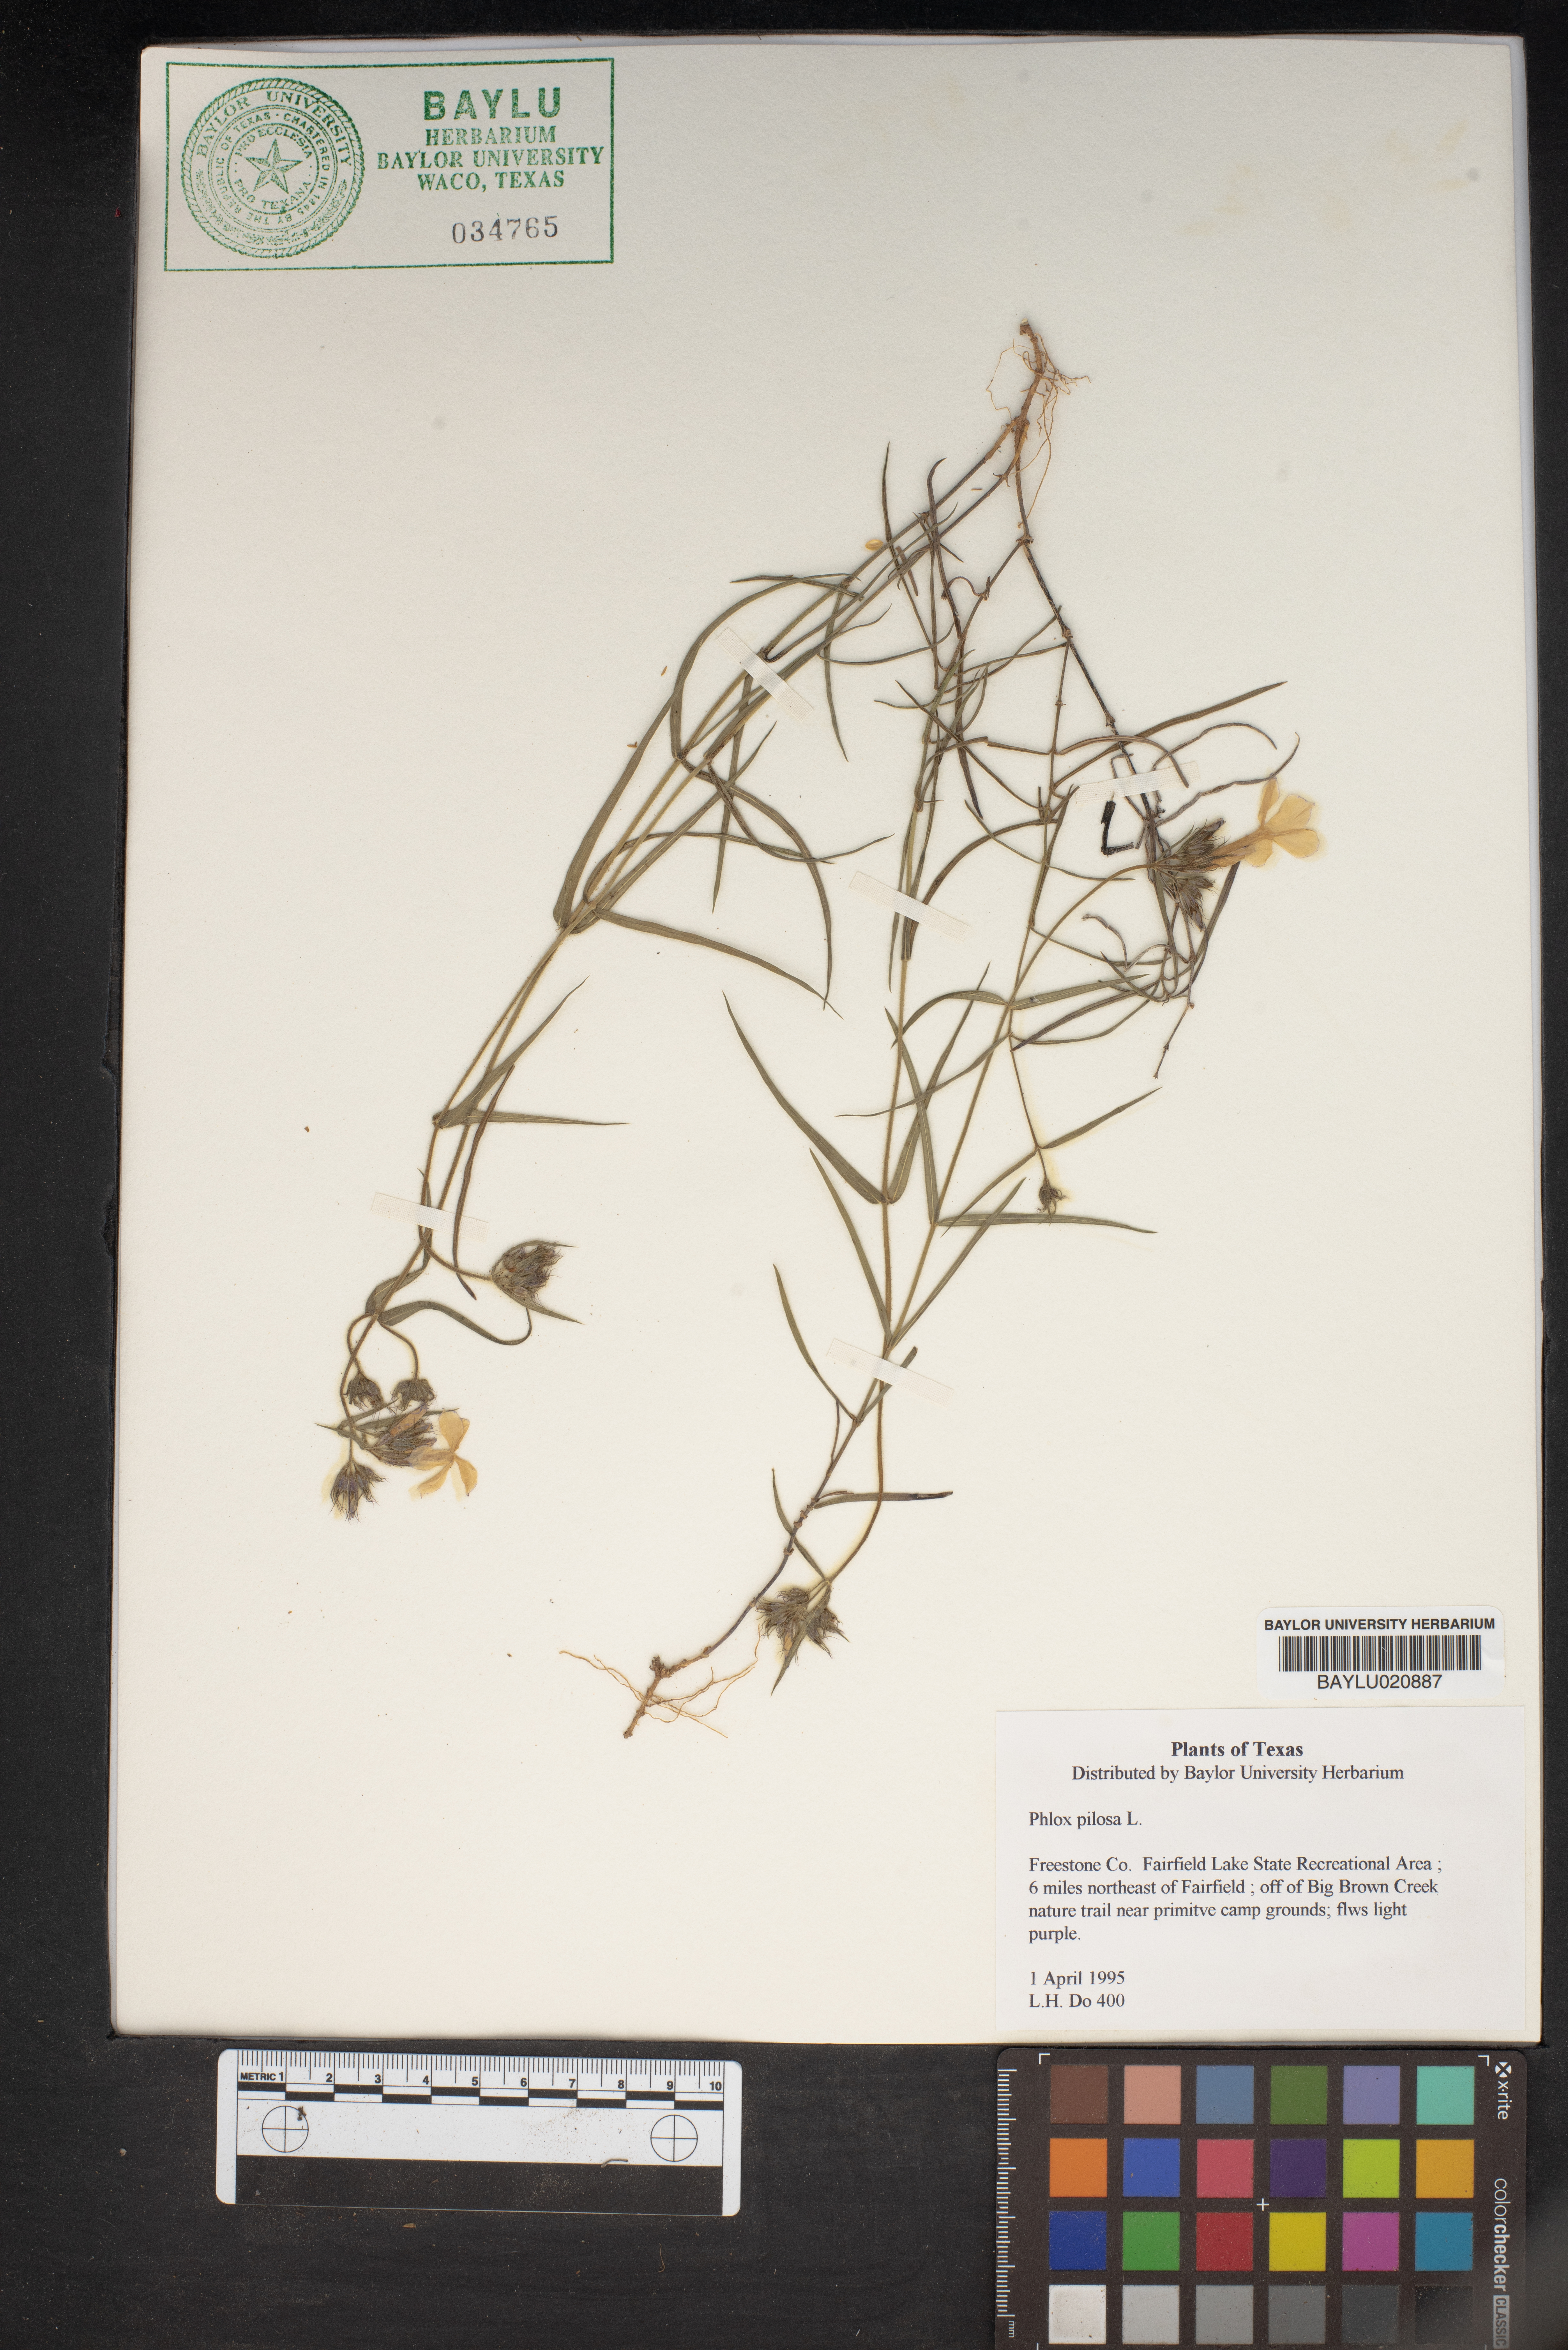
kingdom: Plantae
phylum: Tracheophyta
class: Magnoliopsida
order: Ericales
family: Polemoniaceae
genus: Phlox
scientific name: Phlox pilosa
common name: Prairie phlox
